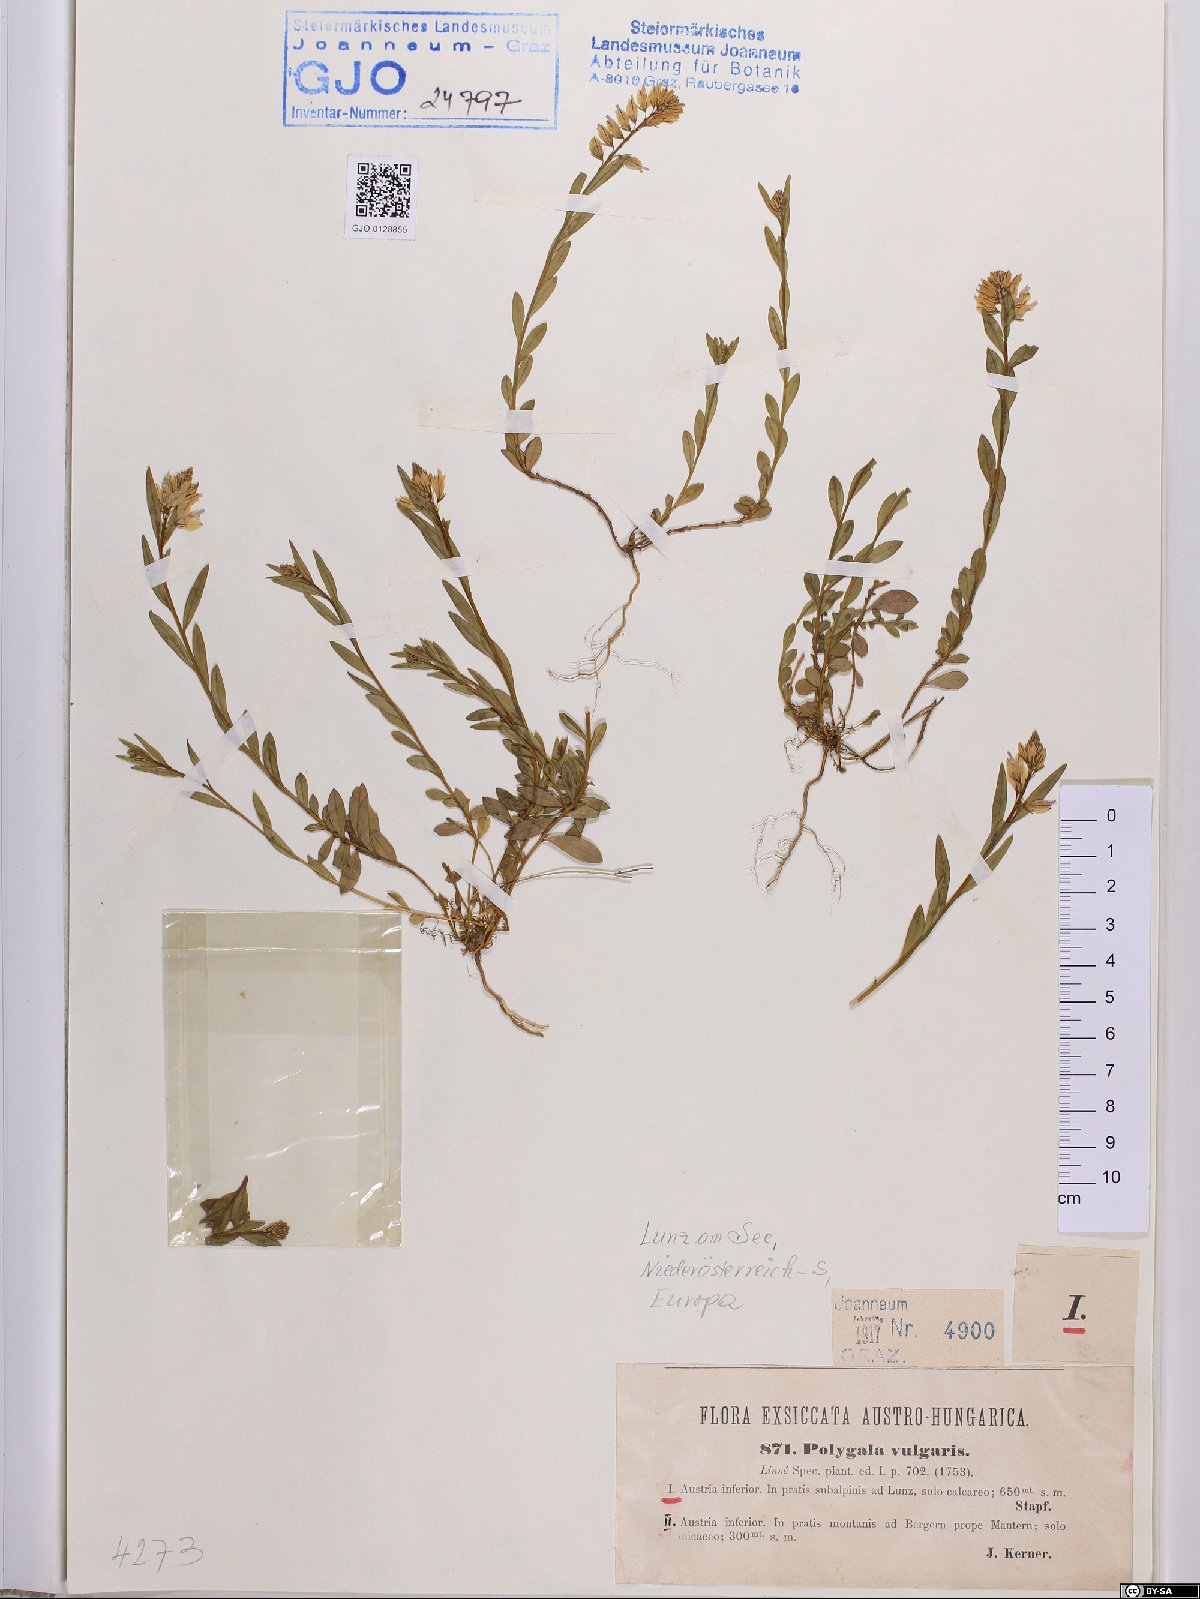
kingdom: Plantae
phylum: Tracheophyta
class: Magnoliopsida
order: Fabales
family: Polygalaceae
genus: Polygala
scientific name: Polygala vulgaris
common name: Common milkwort
